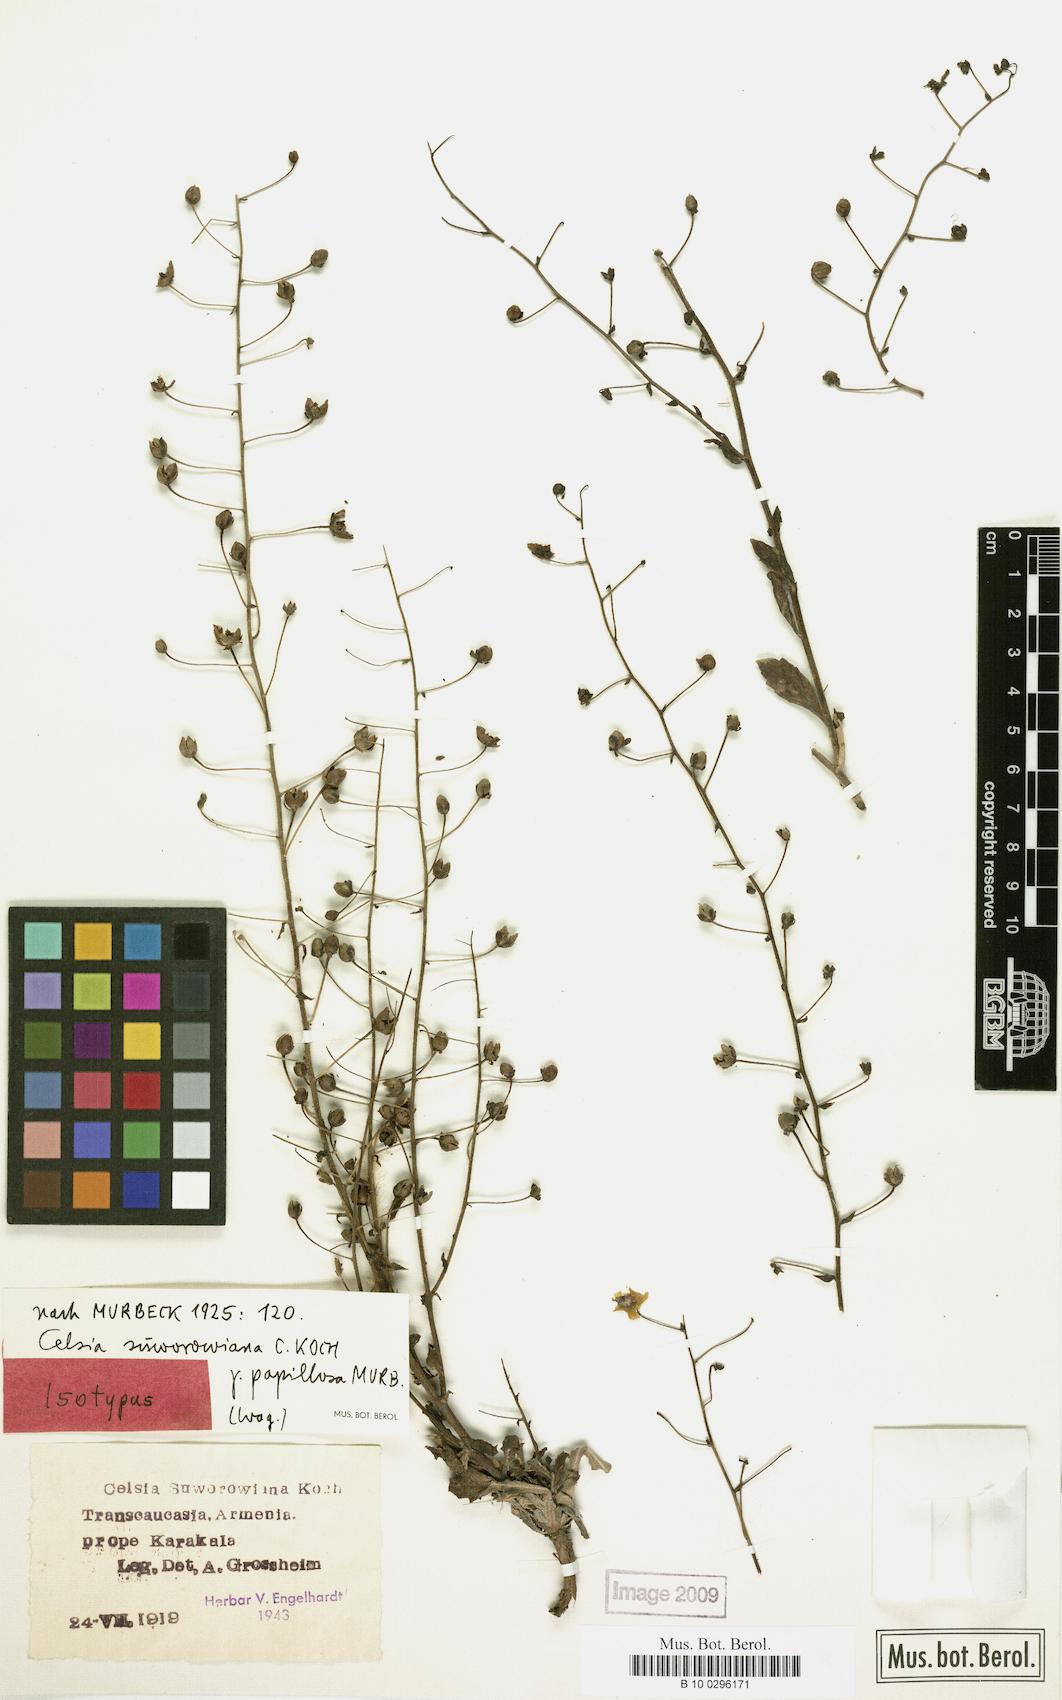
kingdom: Plantae
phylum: Tracheophyta
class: Magnoliopsida
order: Lamiales
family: Scrophulariaceae
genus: Verbascum
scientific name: Verbascum suworowianum
